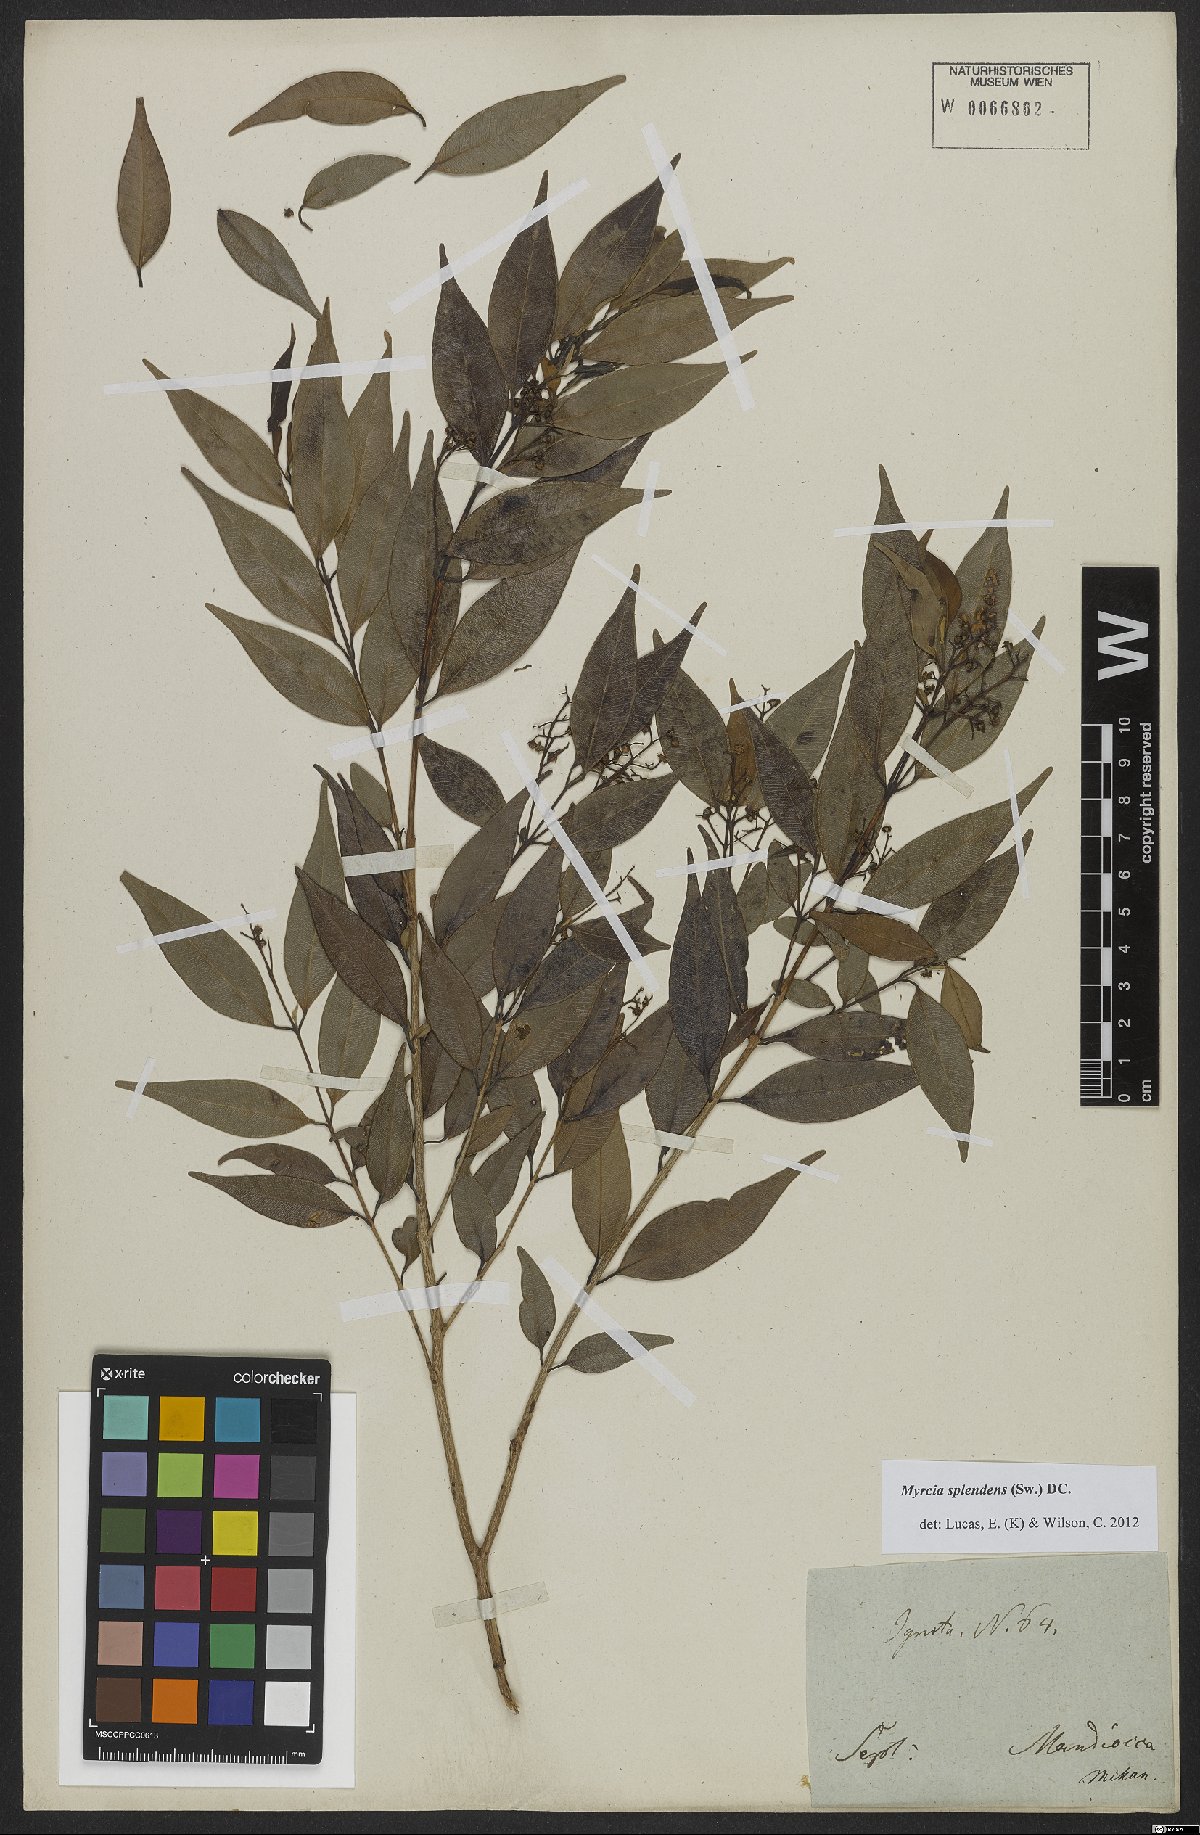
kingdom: Plantae
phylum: Tracheophyta
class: Magnoliopsida
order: Myrtales
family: Myrtaceae
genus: Myrcia
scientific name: Myrcia splendens
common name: Surinam cherry
